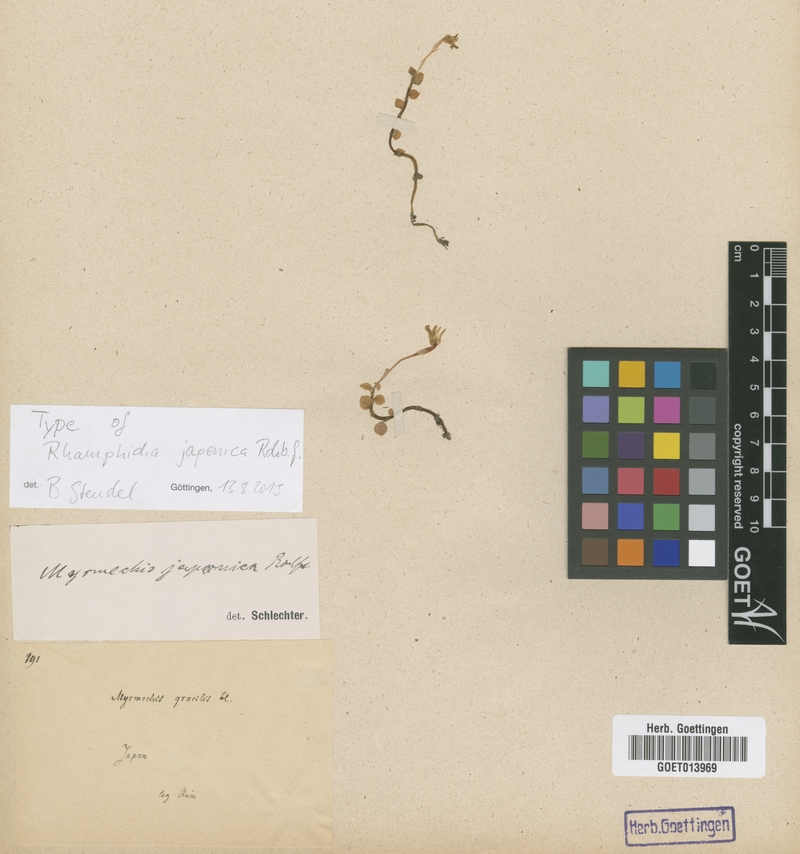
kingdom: Plantae
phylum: Tracheophyta
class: Liliopsida
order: Asparagales
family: Orchidaceae
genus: Odontochilus
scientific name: Odontochilus japonicus
